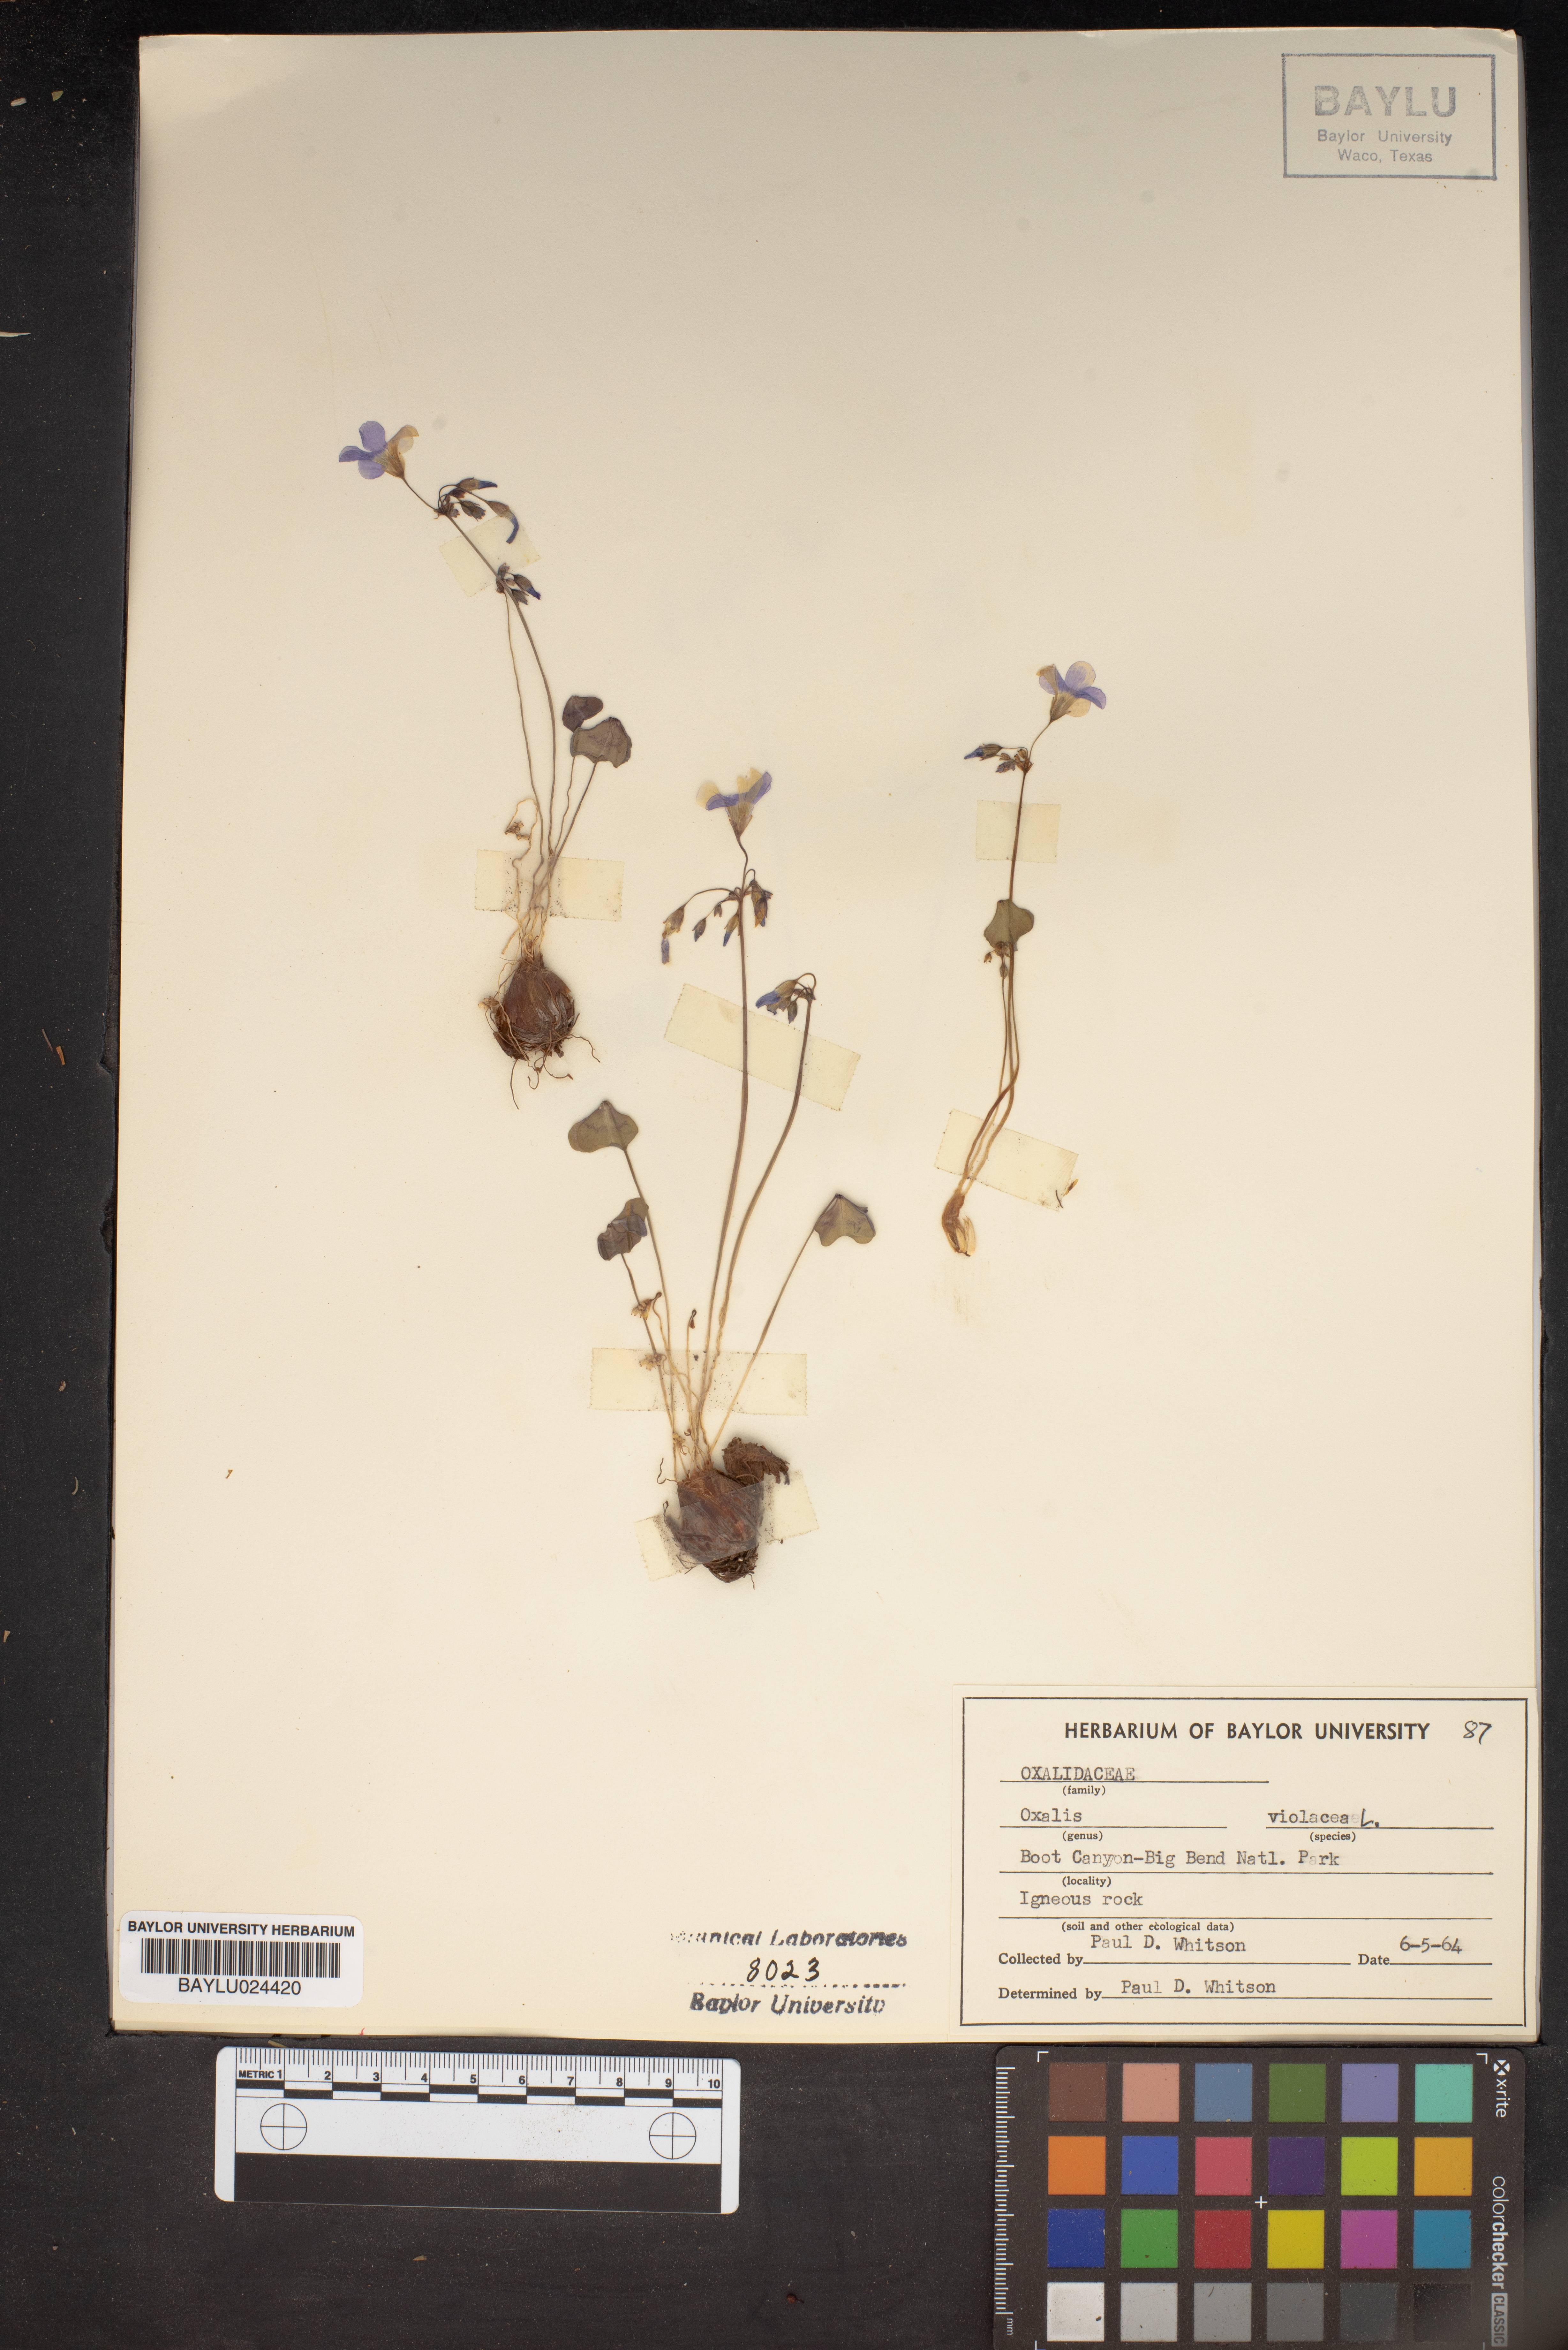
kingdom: Plantae
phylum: Tracheophyta
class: Magnoliopsida
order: Oxalidales
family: Oxalidaceae
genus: Oxalis
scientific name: Oxalis violacea
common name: Violet wood-sorrel
